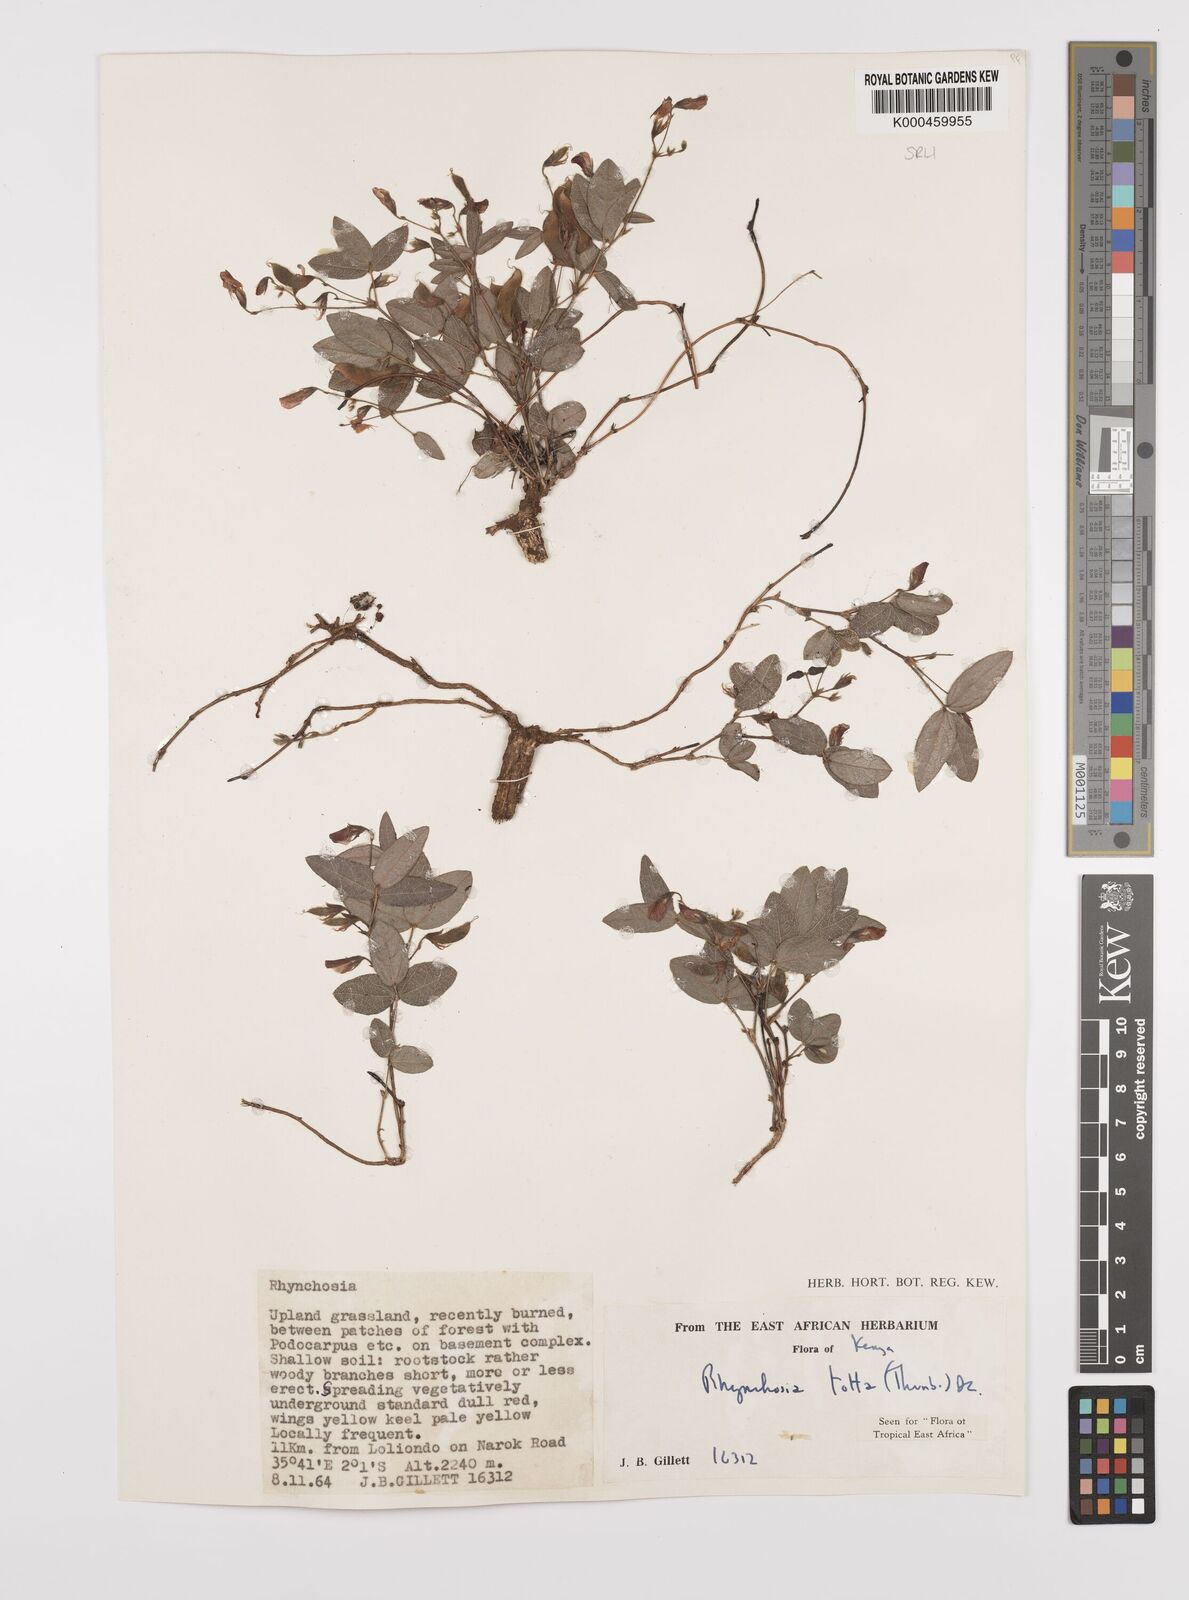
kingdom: Plantae
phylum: Tracheophyta
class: Magnoliopsida
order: Fabales
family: Fabaceae
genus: Rhynchosia
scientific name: Rhynchosia totta
